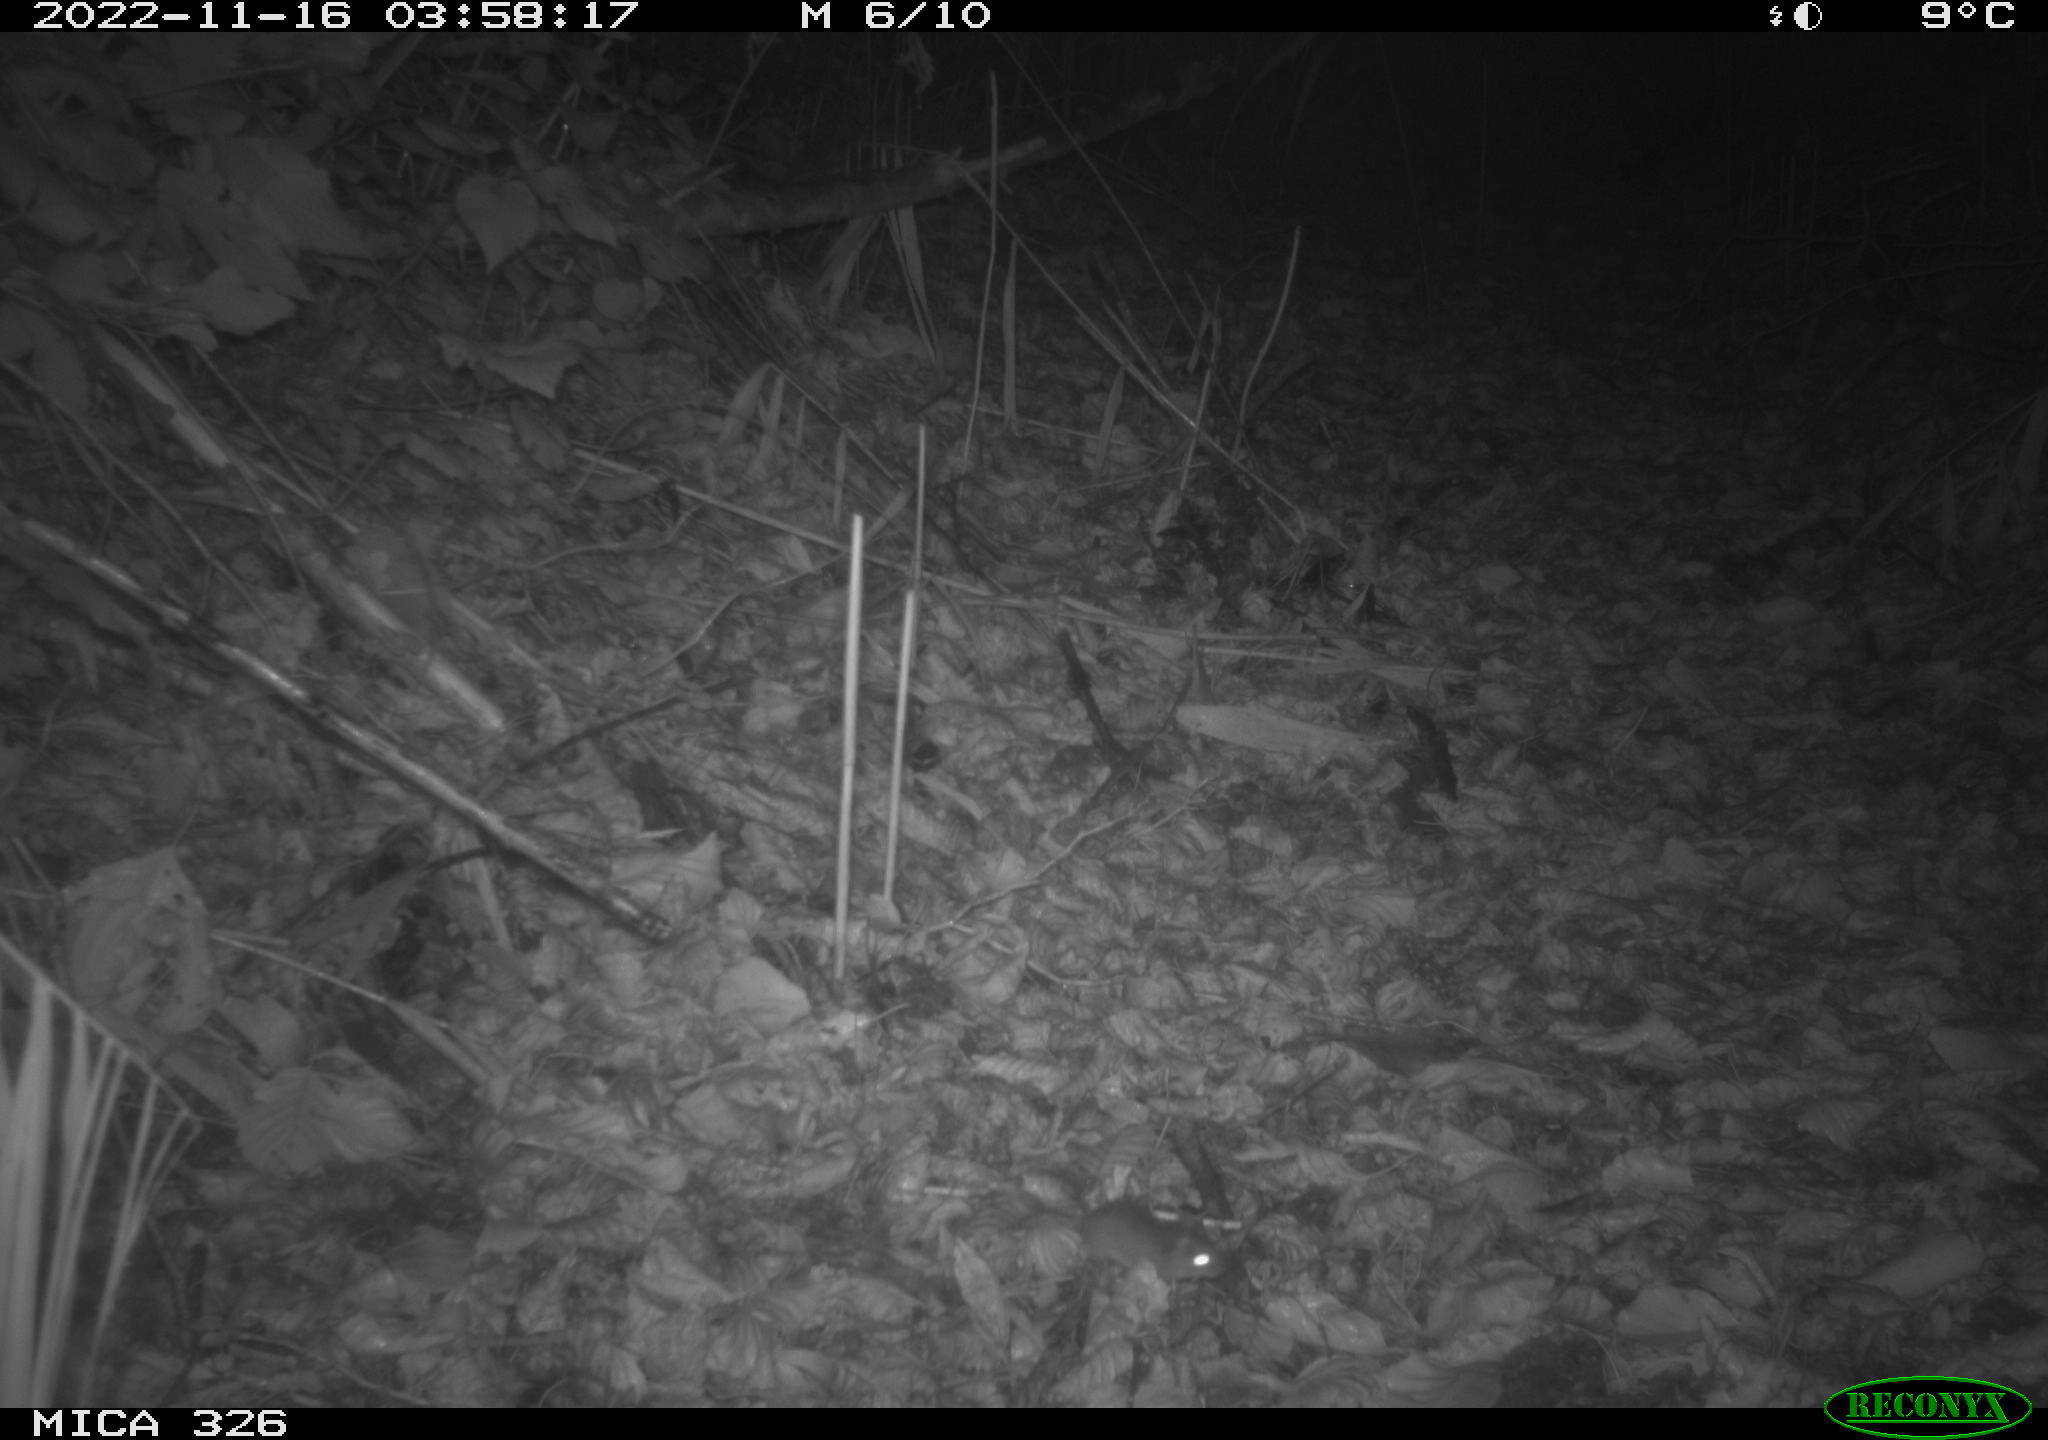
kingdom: Animalia
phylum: Chordata
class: Mammalia
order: Rodentia
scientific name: Rodentia
